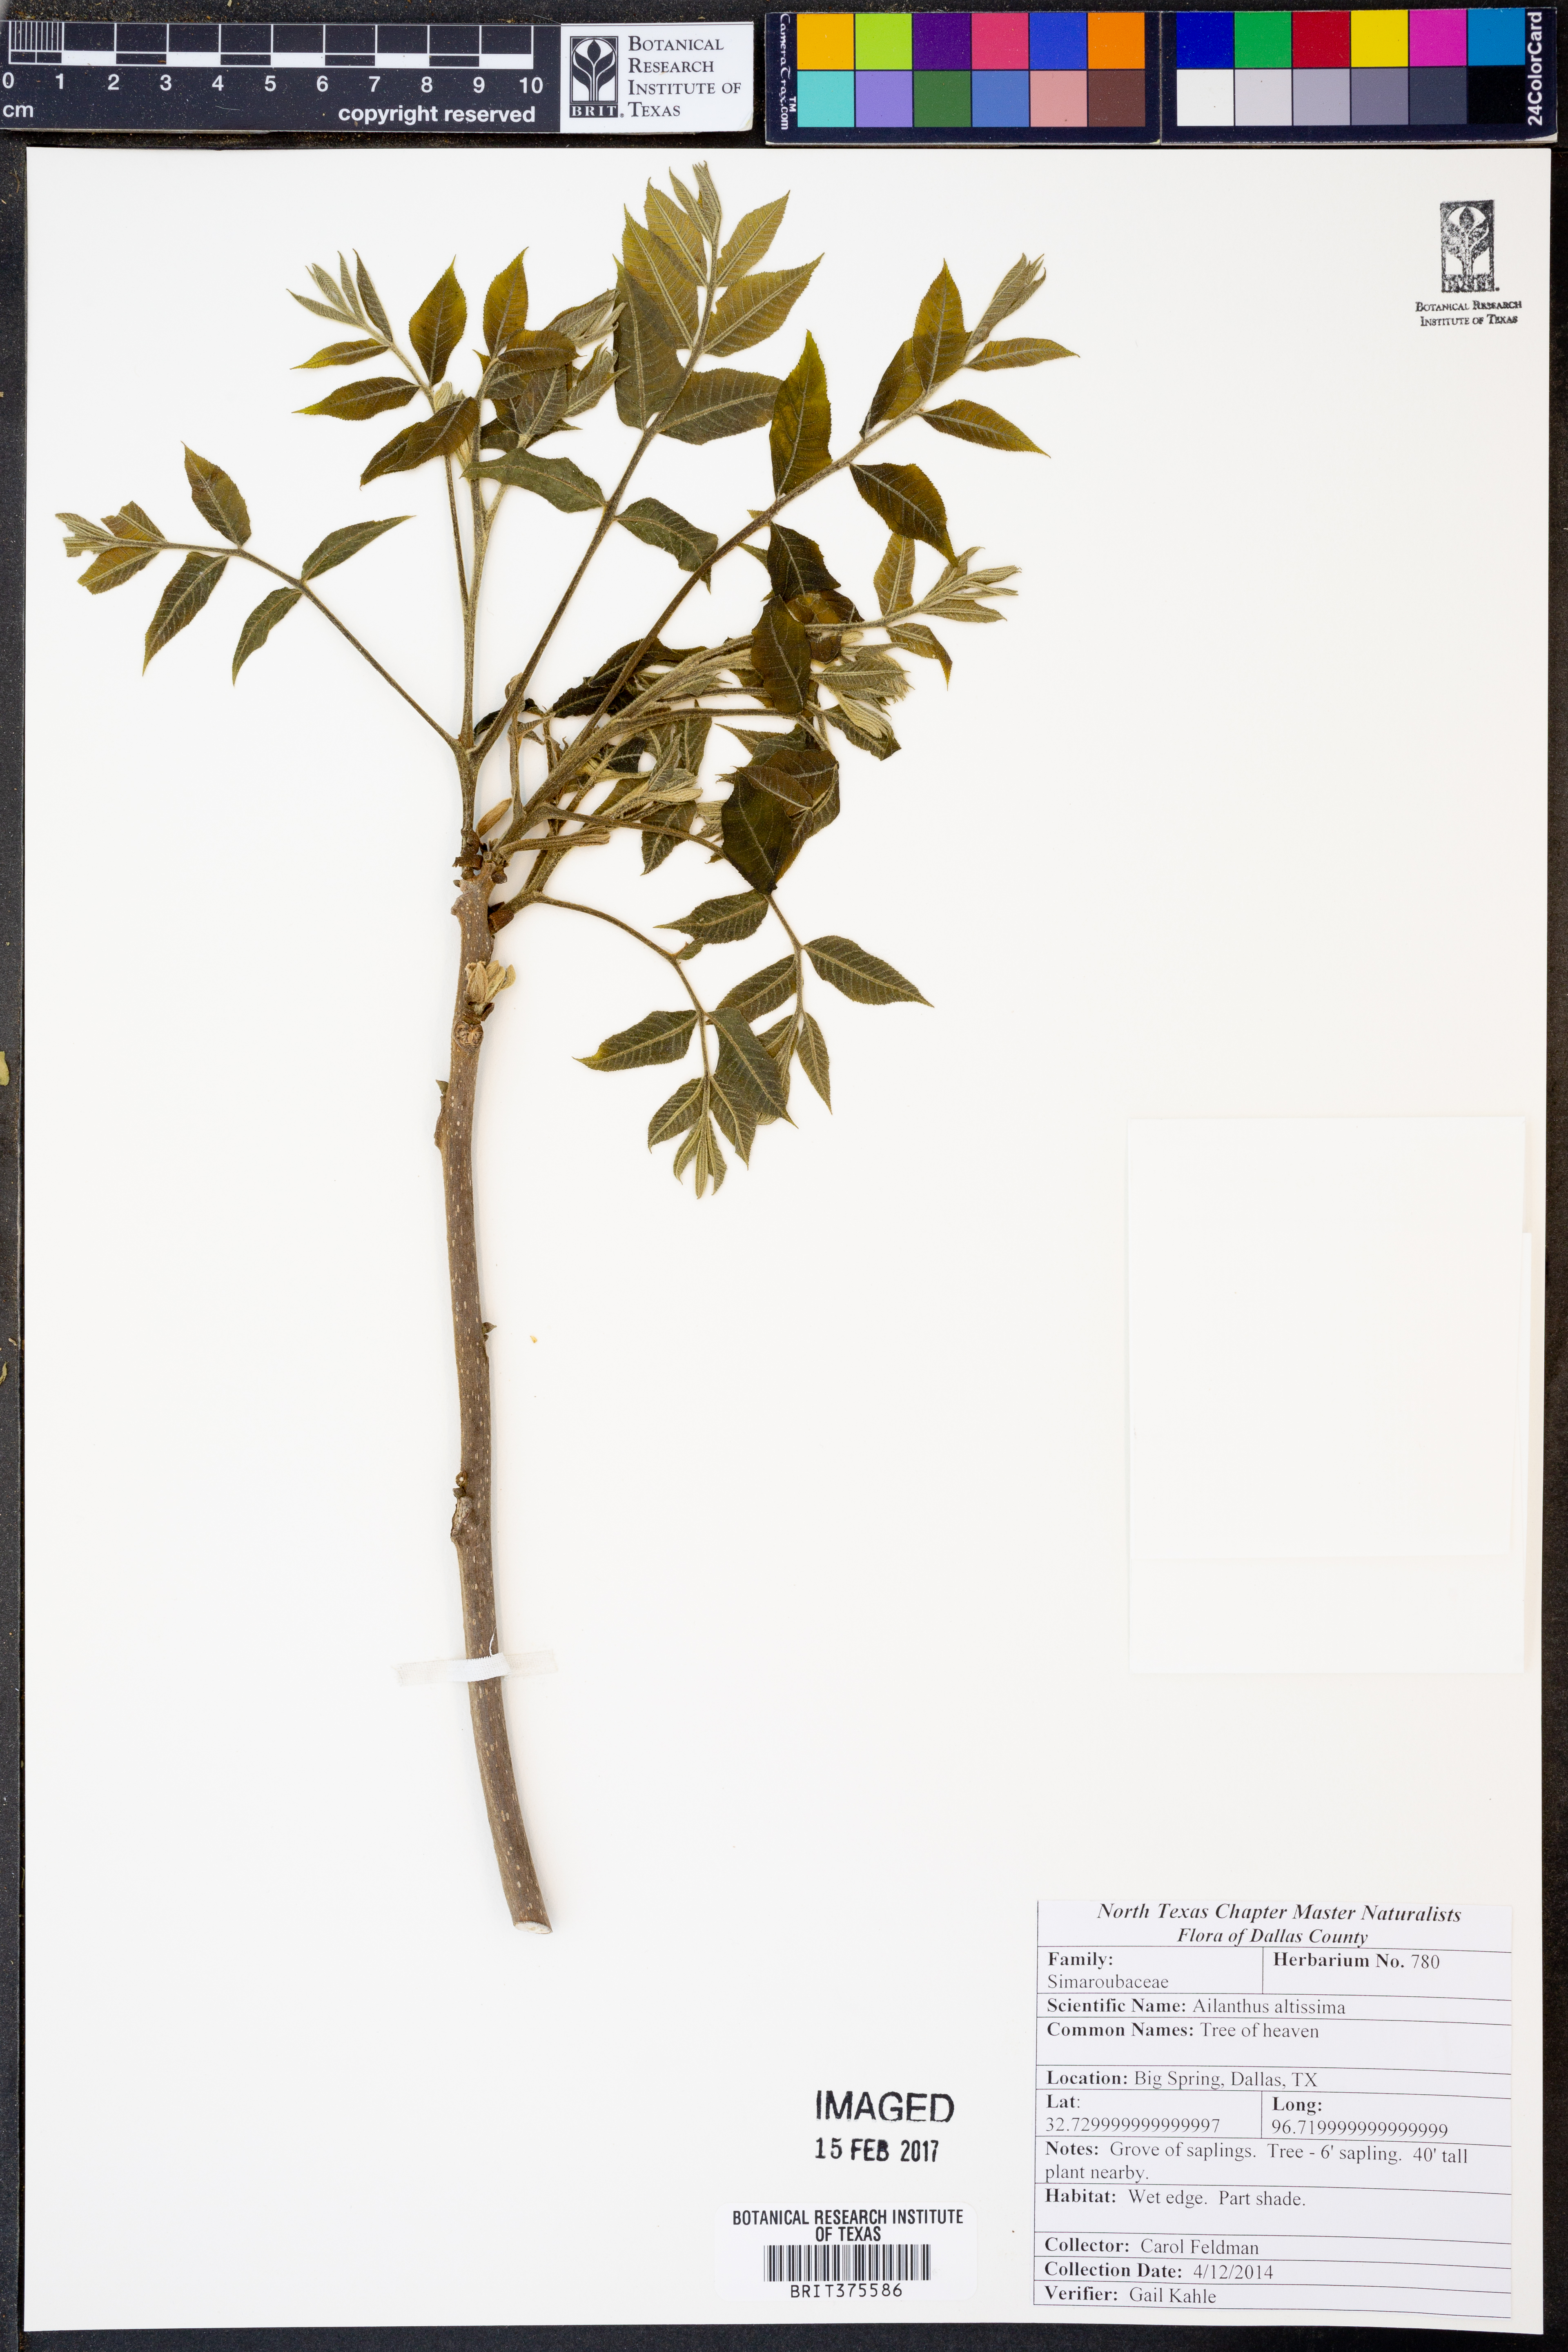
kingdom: Plantae
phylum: Tracheophyta
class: Magnoliopsida
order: Sapindales
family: Simaroubaceae
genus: Ailanthus
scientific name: Ailanthus altissima
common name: Tree-of-heaven
